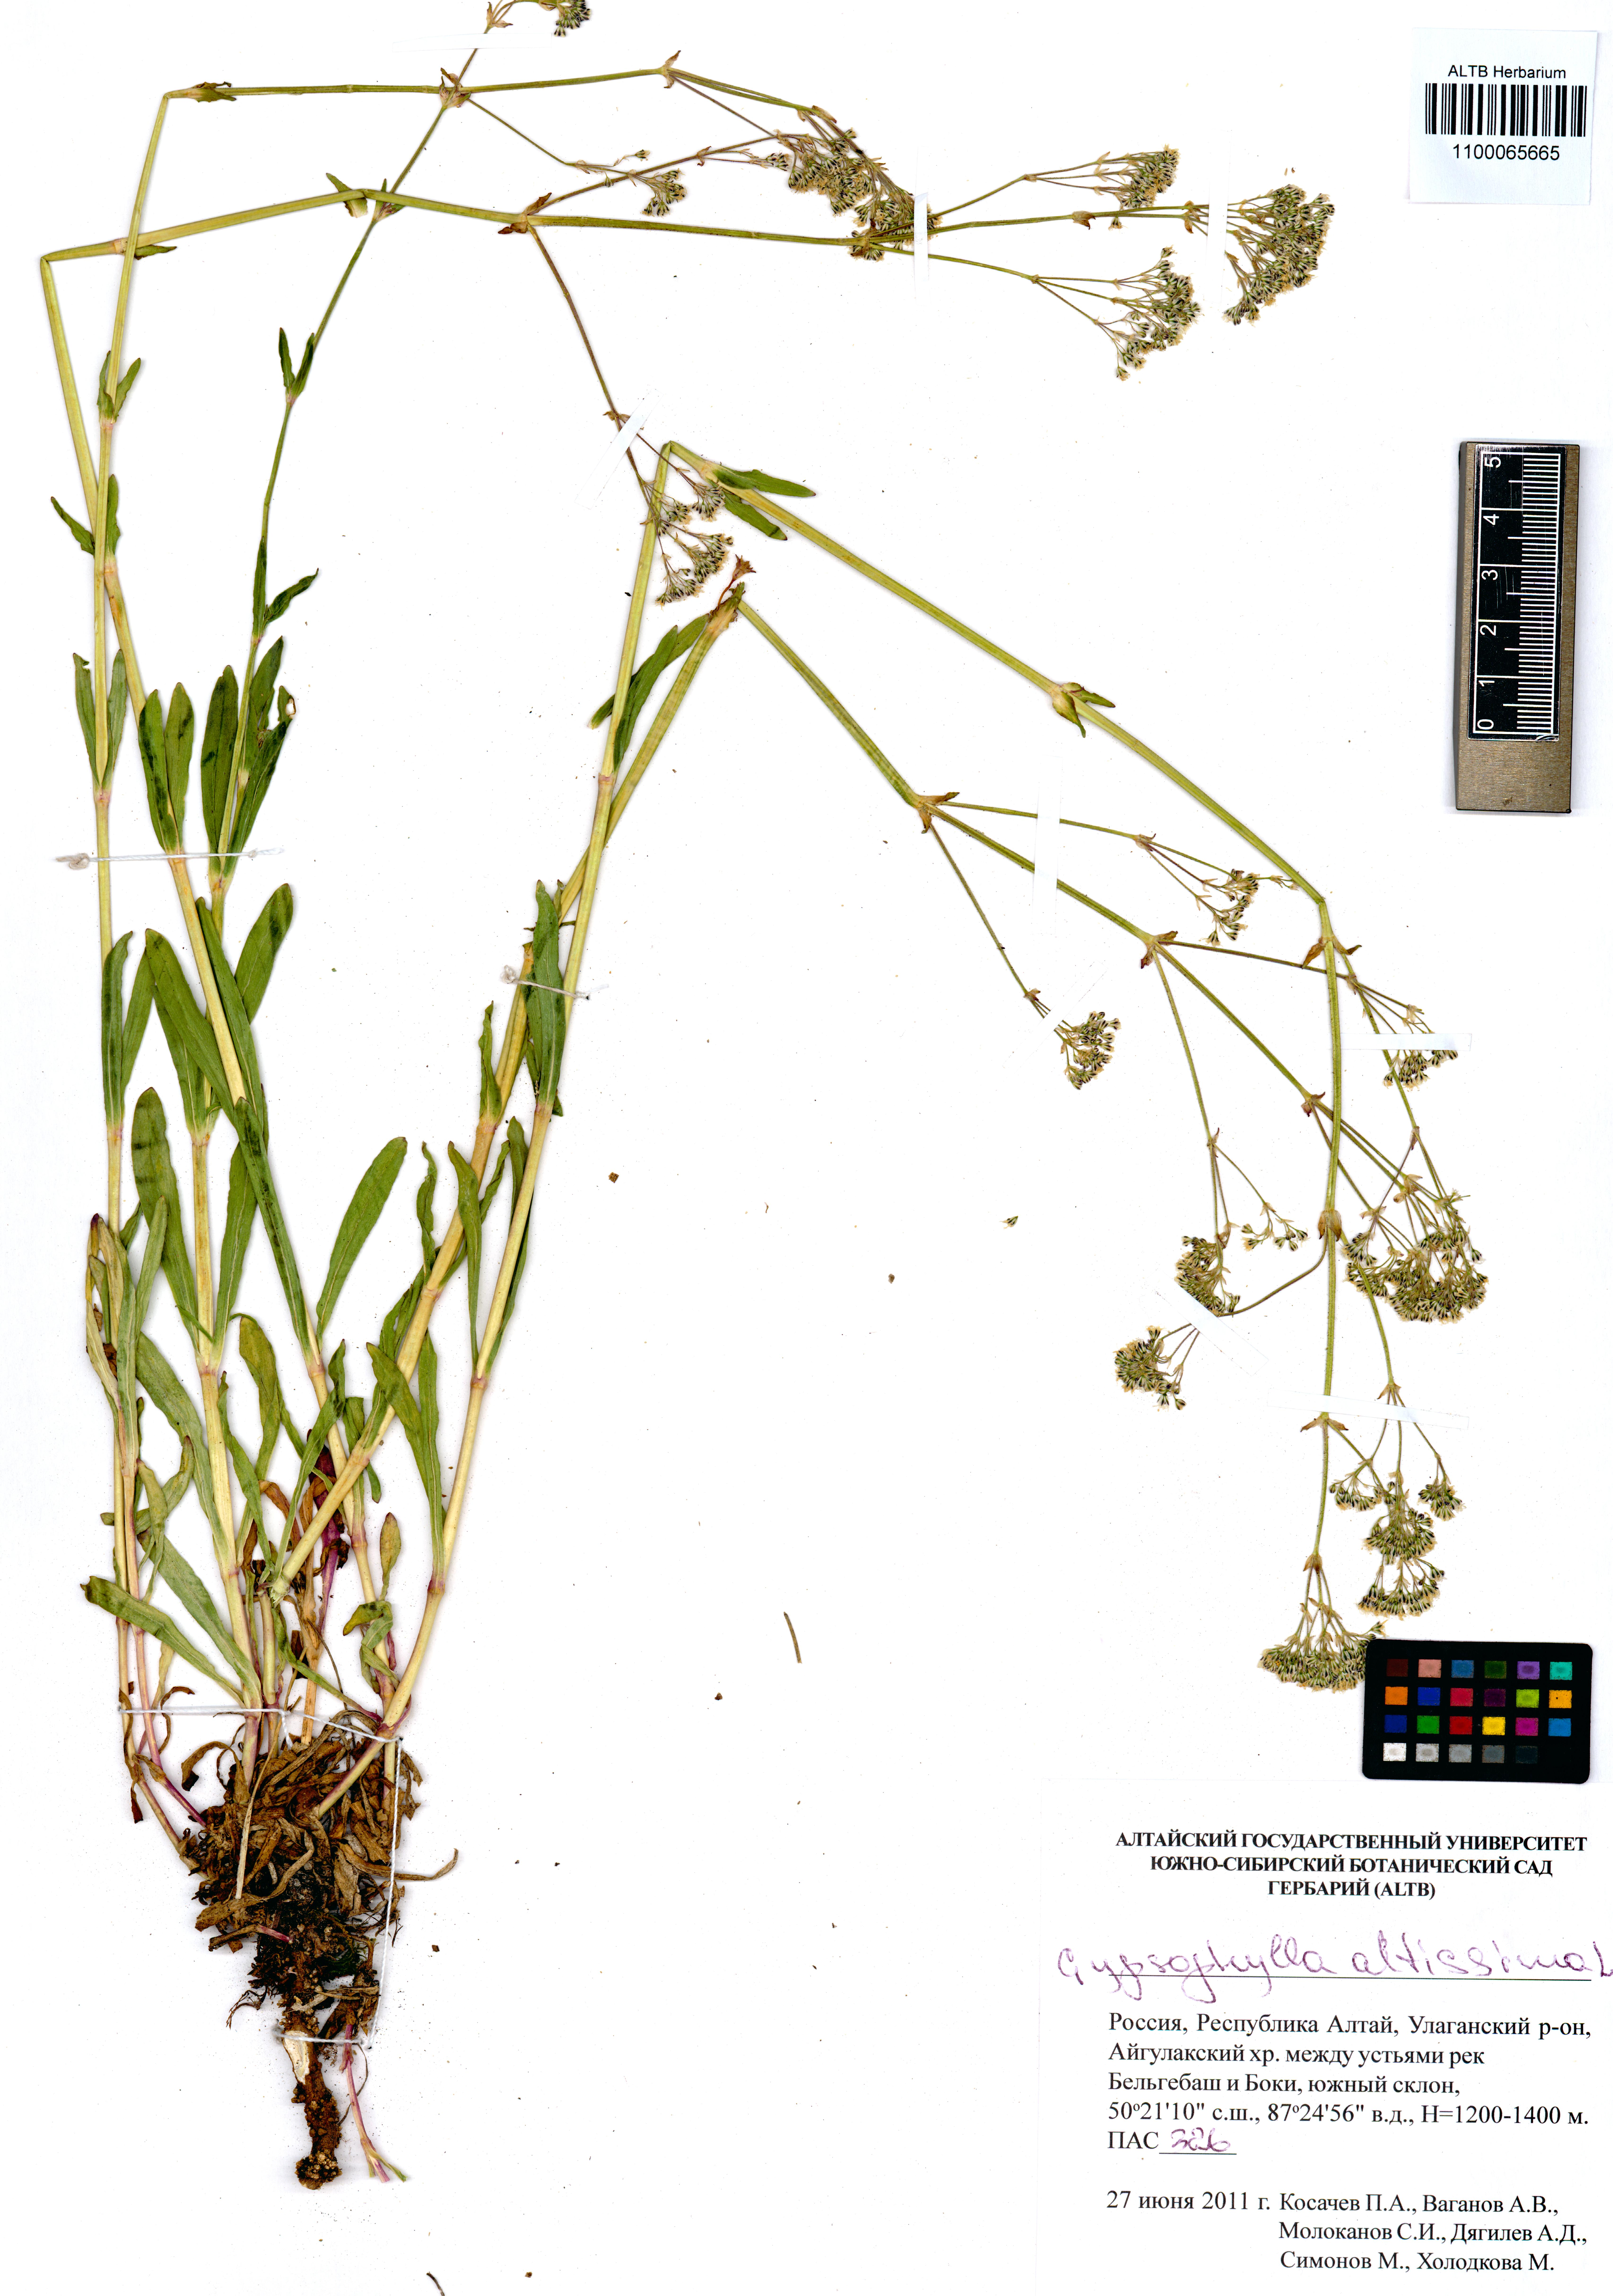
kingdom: Plantae
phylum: Tracheophyta
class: Magnoliopsida
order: Caryophyllales
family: Caryophyllaceae
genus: Heterochroa
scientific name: Heterochroa petraea
